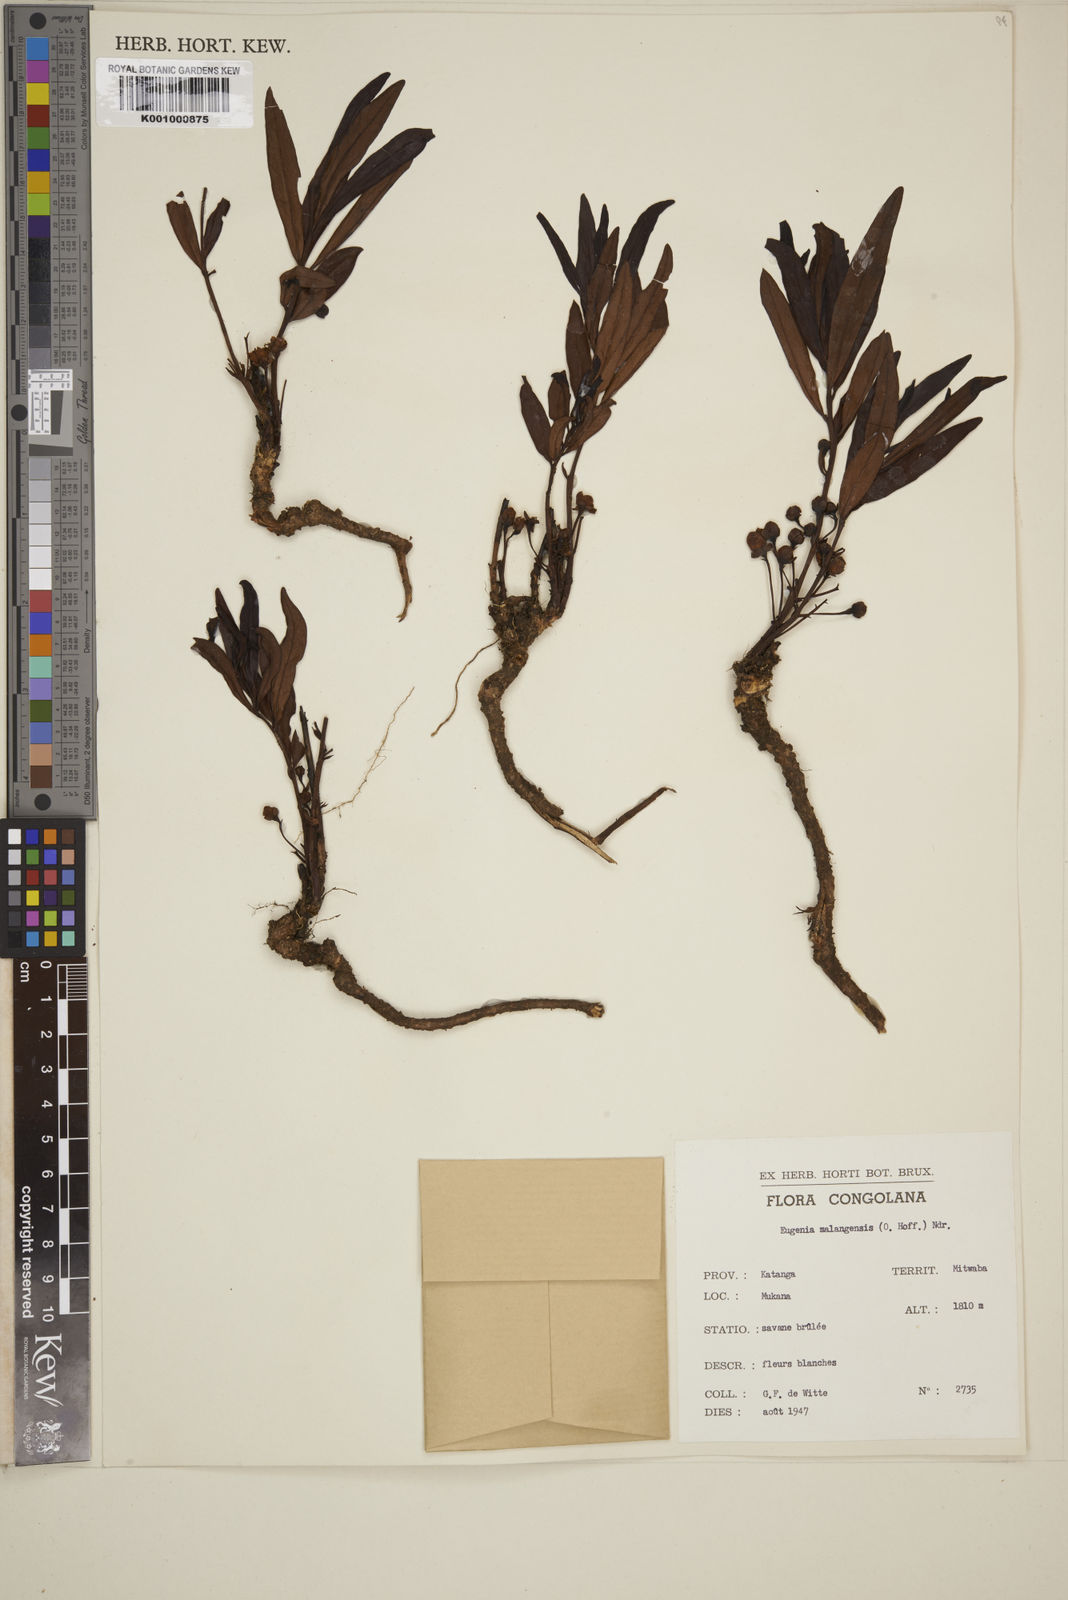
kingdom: Plantae
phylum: Tracheophyta
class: Magnoliopsida
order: Myrtales
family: Myrtaceae
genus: Eugenia
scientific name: Eugenia malangensis
